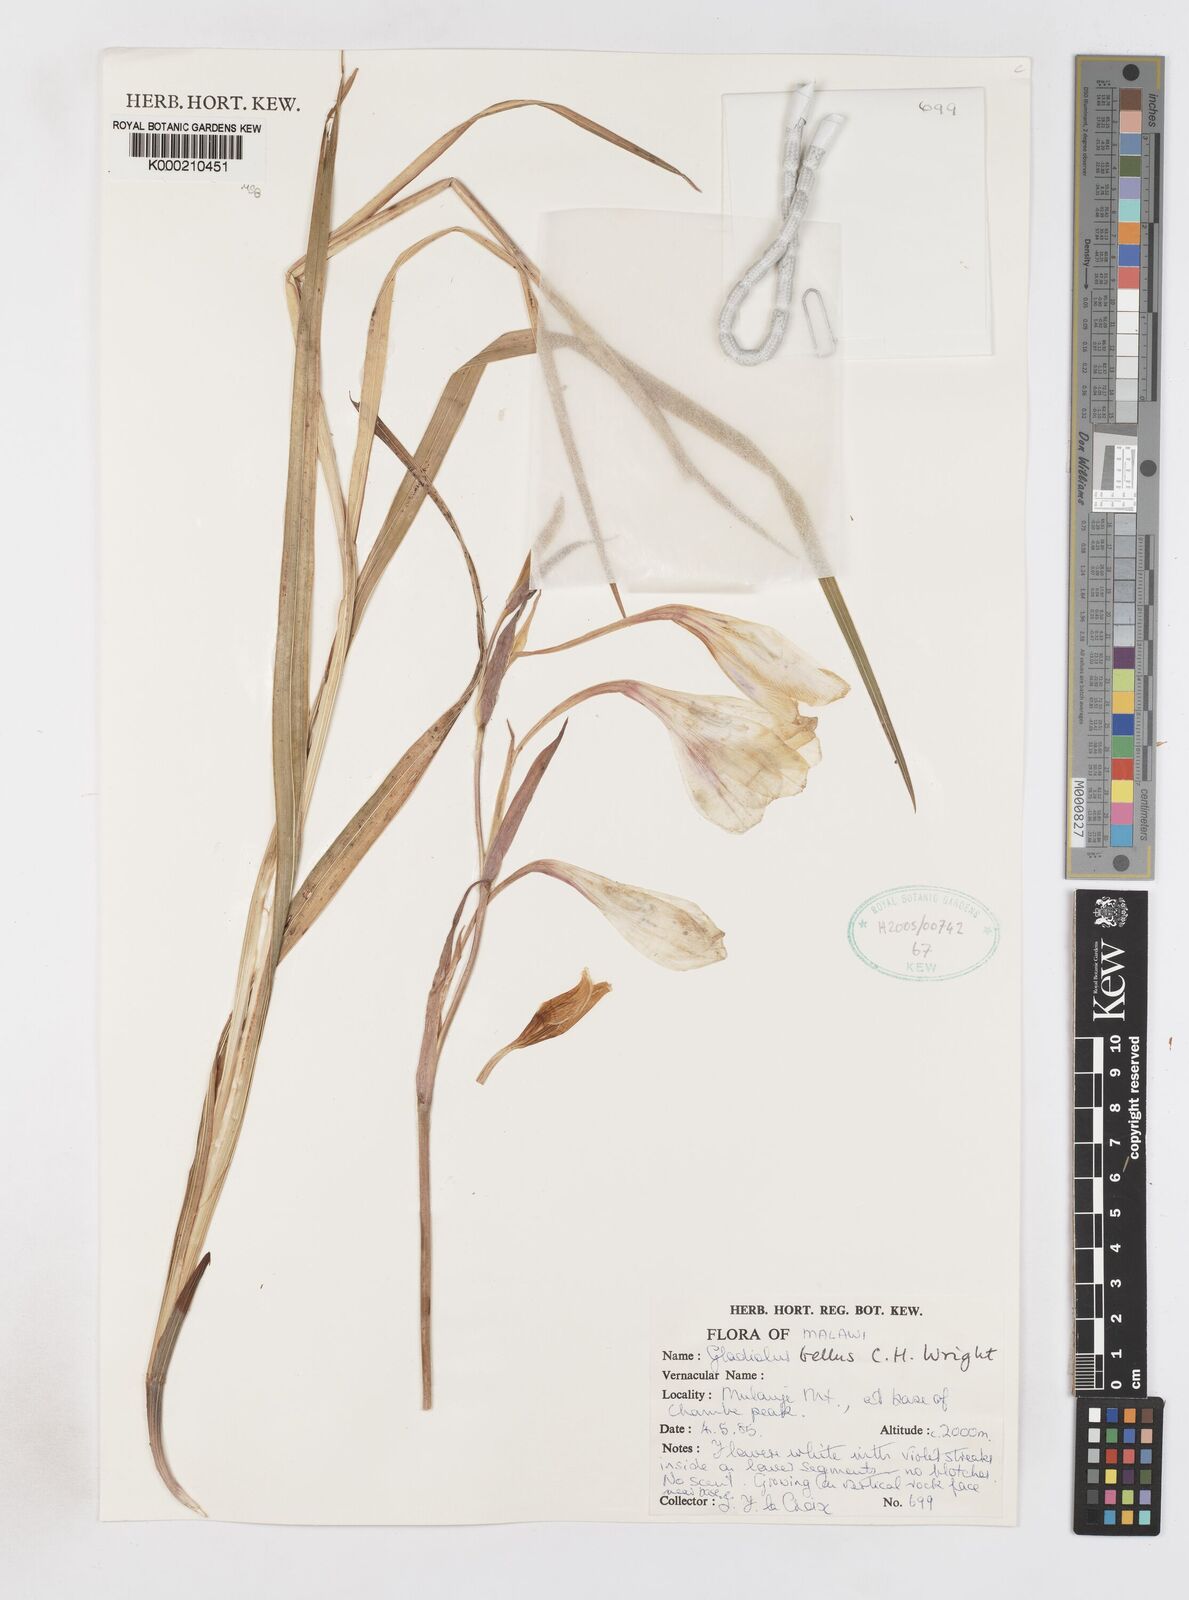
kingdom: Plantae
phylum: Tracheophyta
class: Liliopsida
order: Asparagales
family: Iridaceae
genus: Gladiolus
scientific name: Gladiolus bellus
